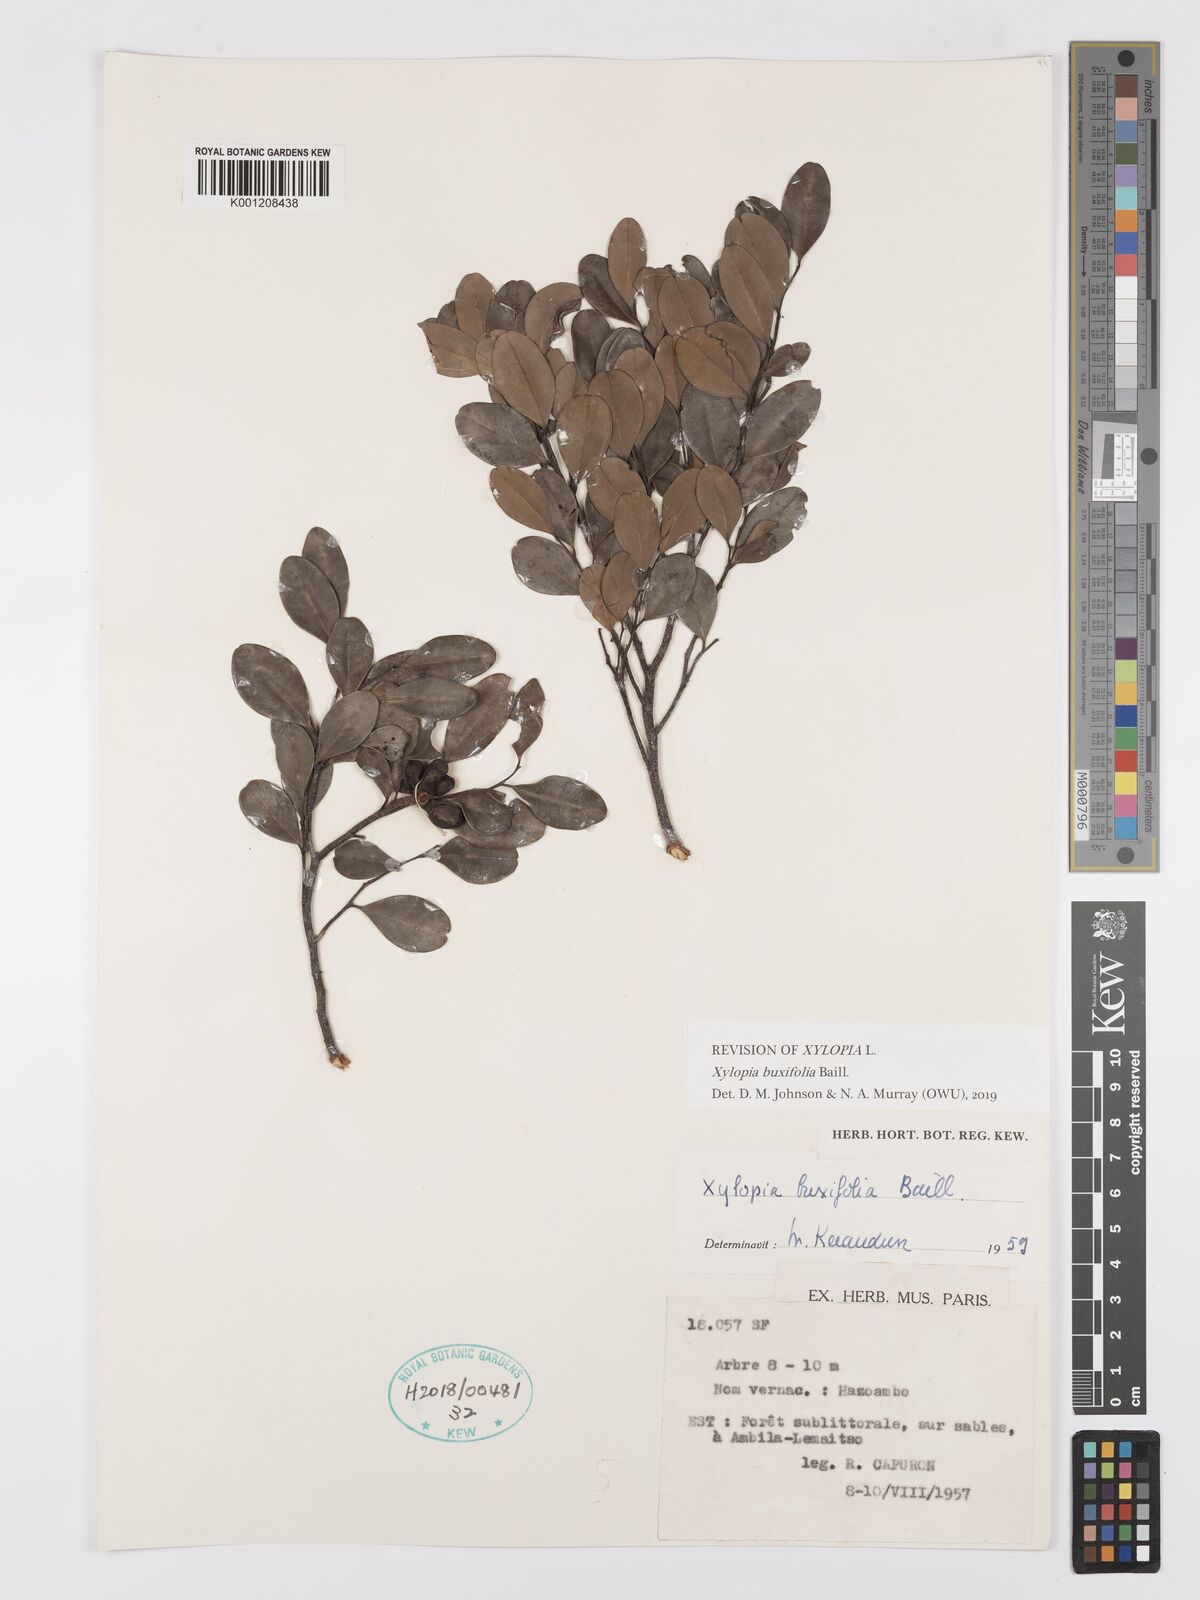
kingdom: Plantae
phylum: Tracheophyta
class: Magnoliopsida
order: Magnoliales
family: Annonaceae
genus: Xylopia
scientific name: Xylopia buxifolia
